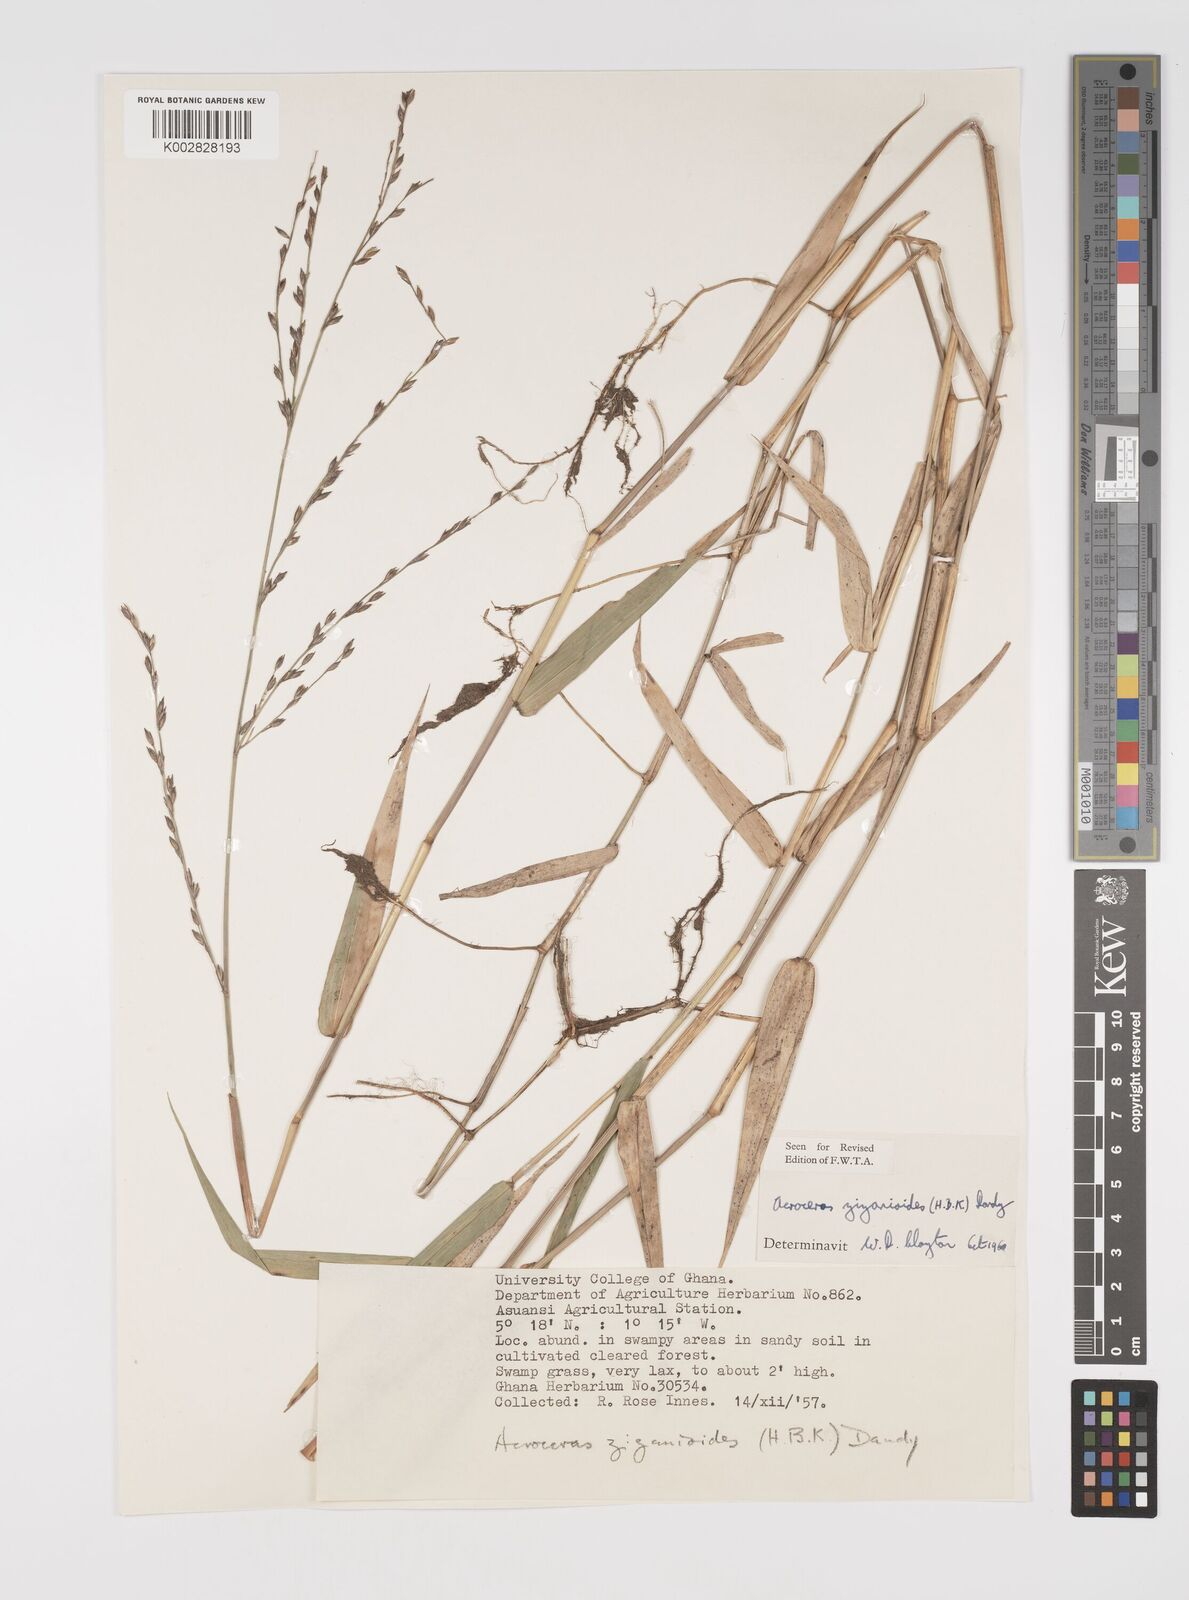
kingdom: Plantae
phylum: Tracheophyta
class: Liliopsida
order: Poales
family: Poaceae
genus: Acroceras
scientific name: Acroceras zizanioides
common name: Oat grass
